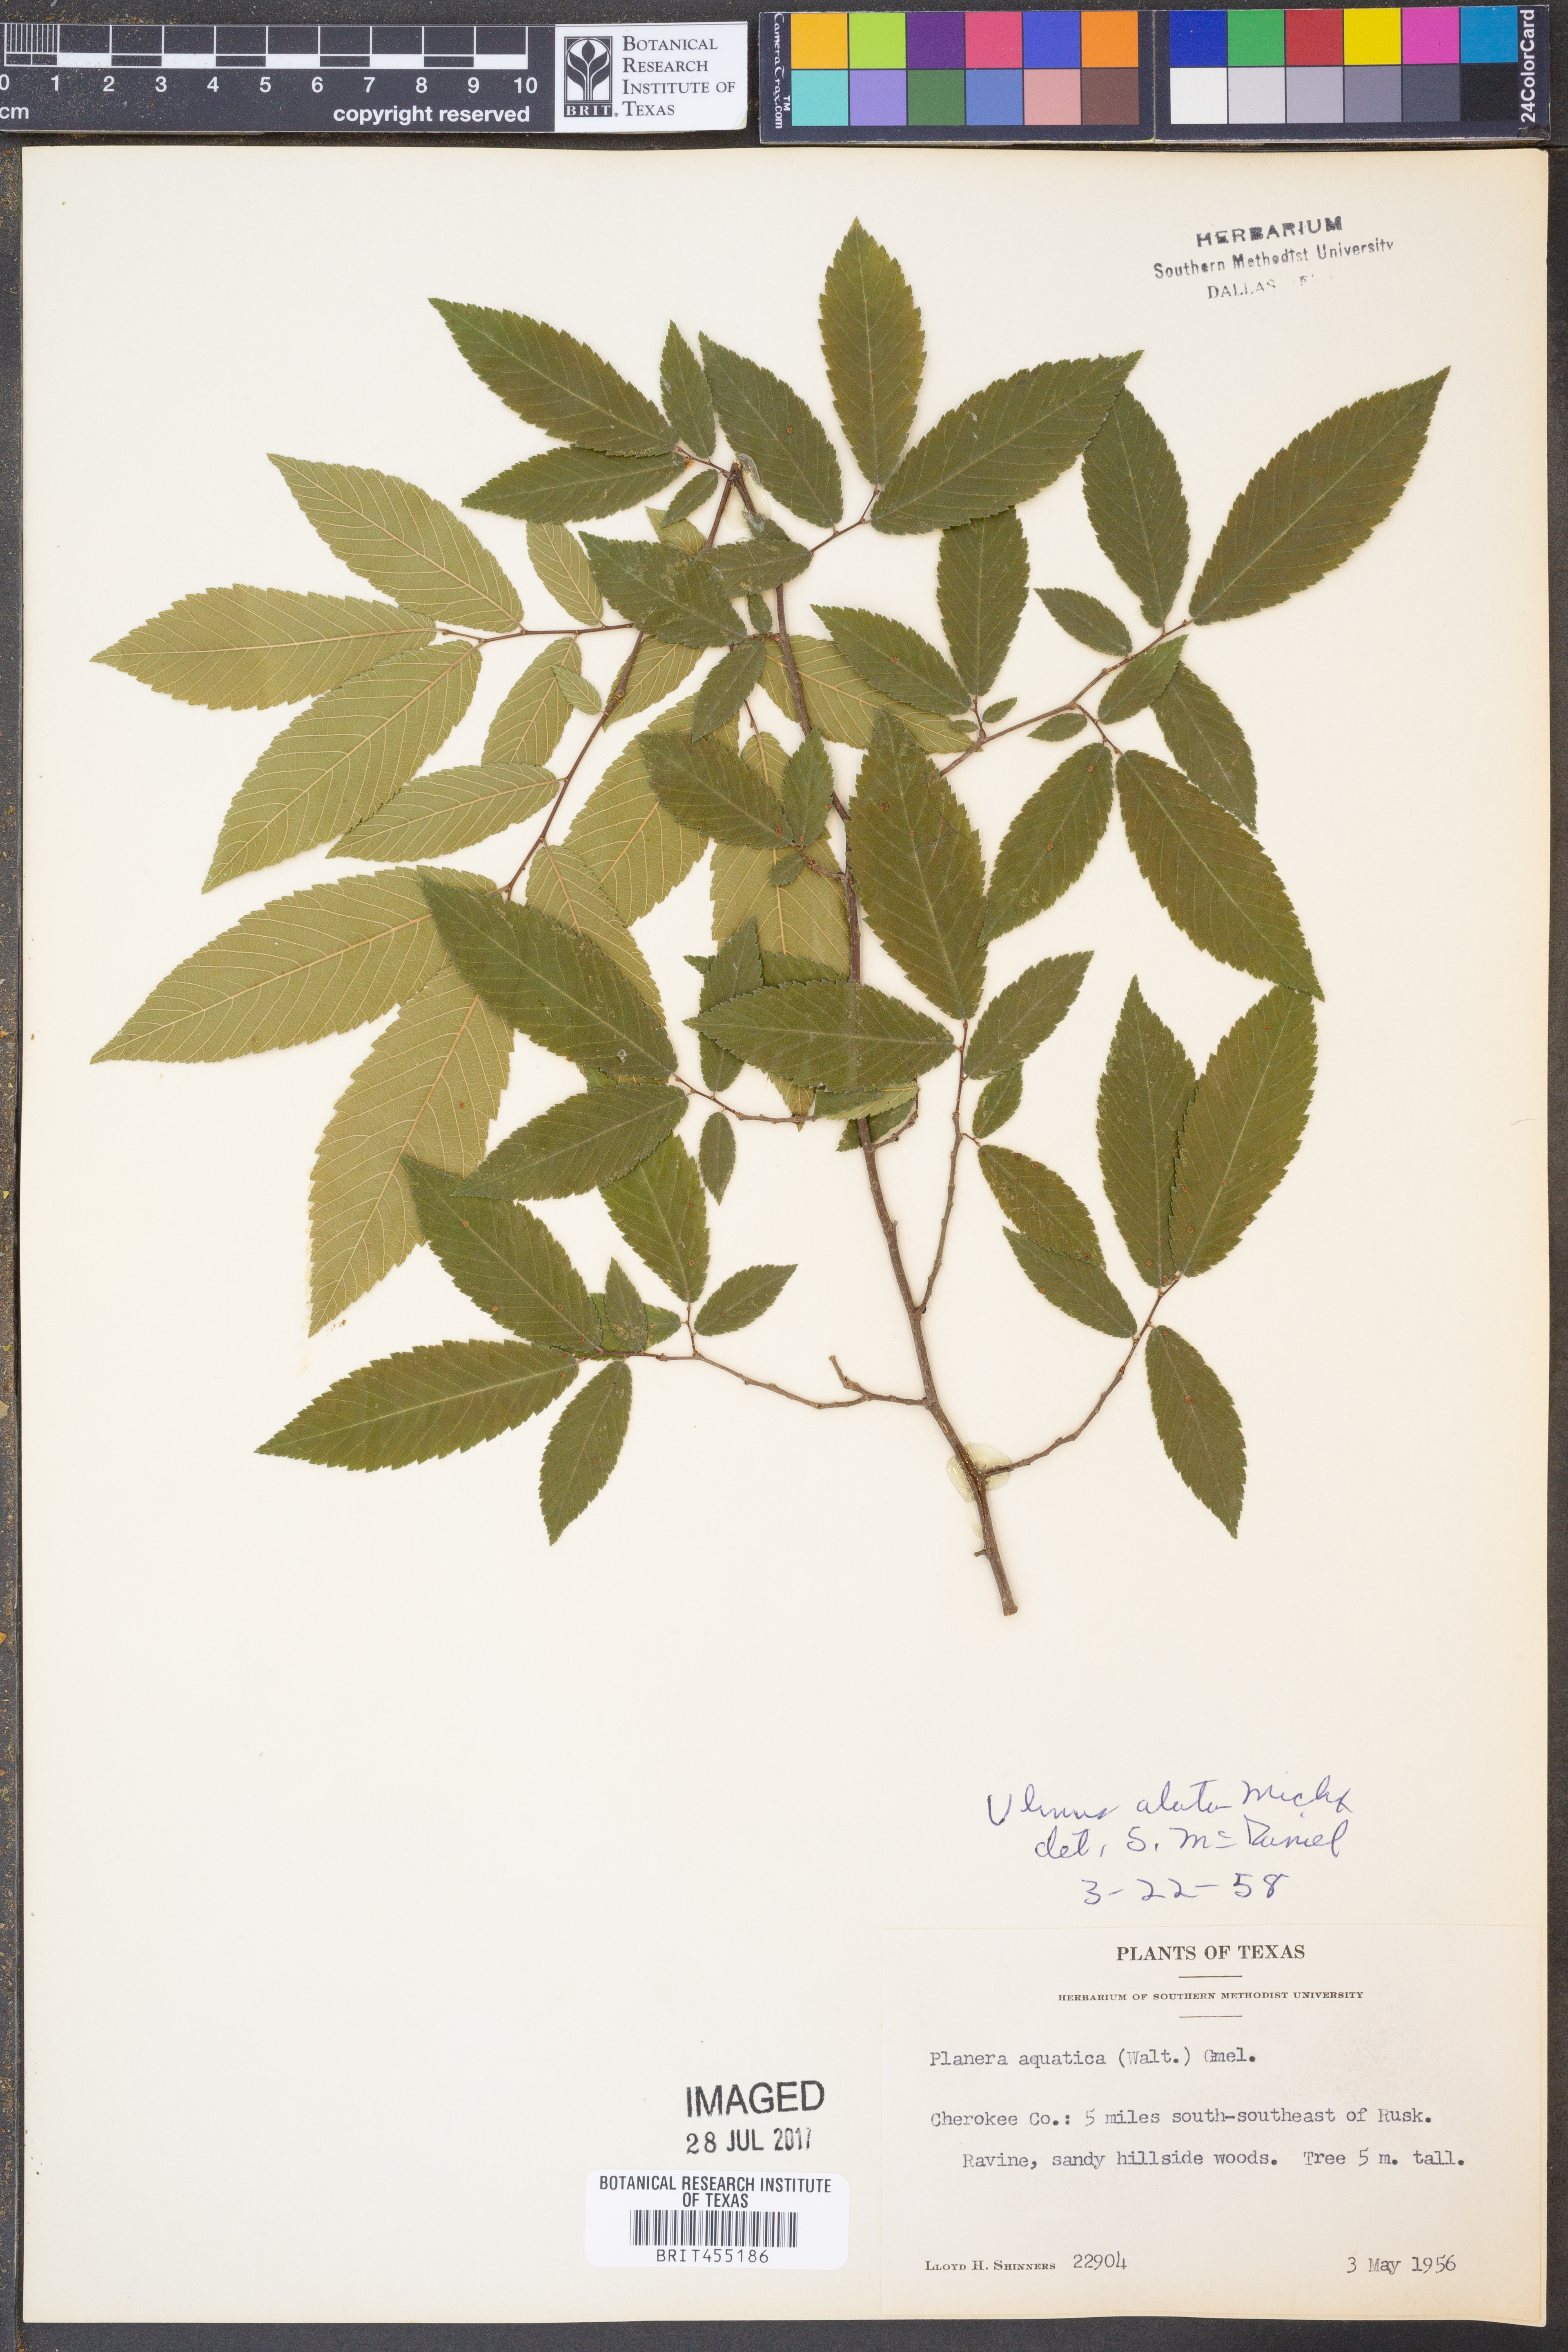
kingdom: Plantae
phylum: Tracheophyta
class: Magnoliopsida
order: Rosales
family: Ulmaceae
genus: Ulmus
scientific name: Ulmus alata
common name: Winged elm
